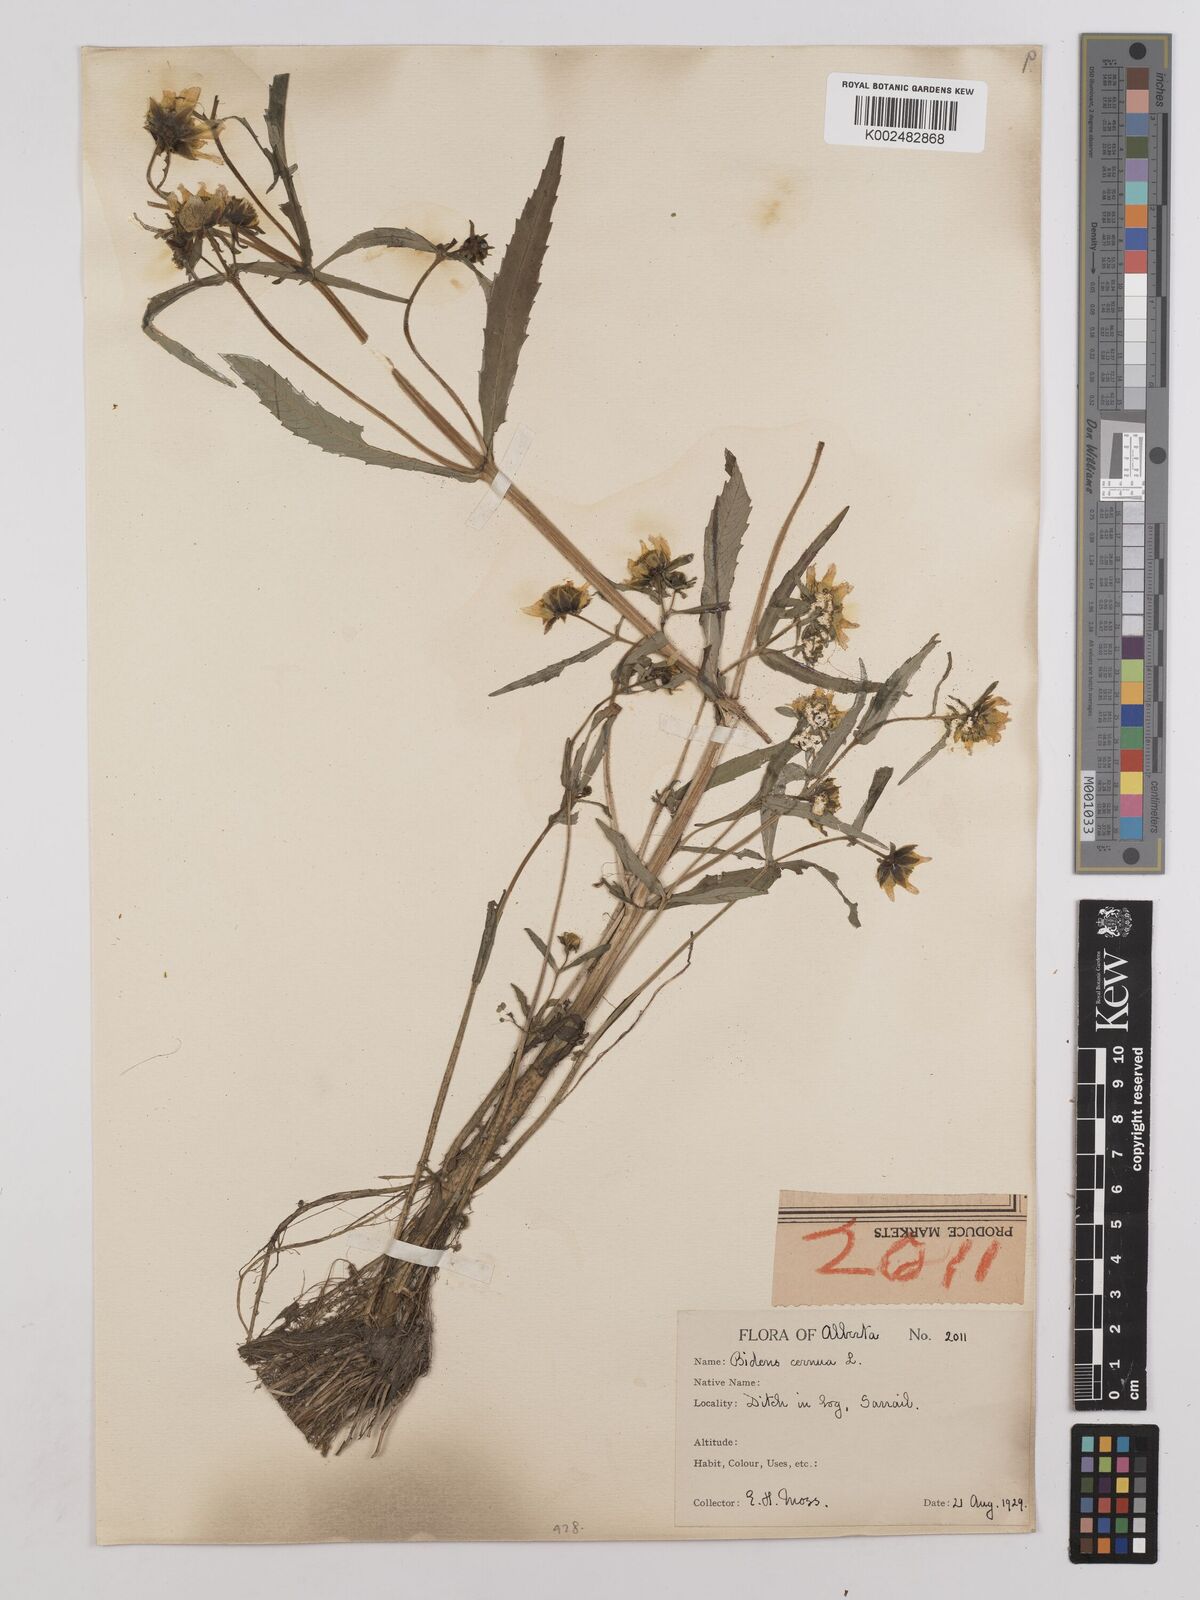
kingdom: Plantae
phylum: Tracheophyta
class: Magnoliopsida
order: Asterales
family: Asteraceae
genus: Bidens
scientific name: Bidens cernua
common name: Nodding bur-marigold
